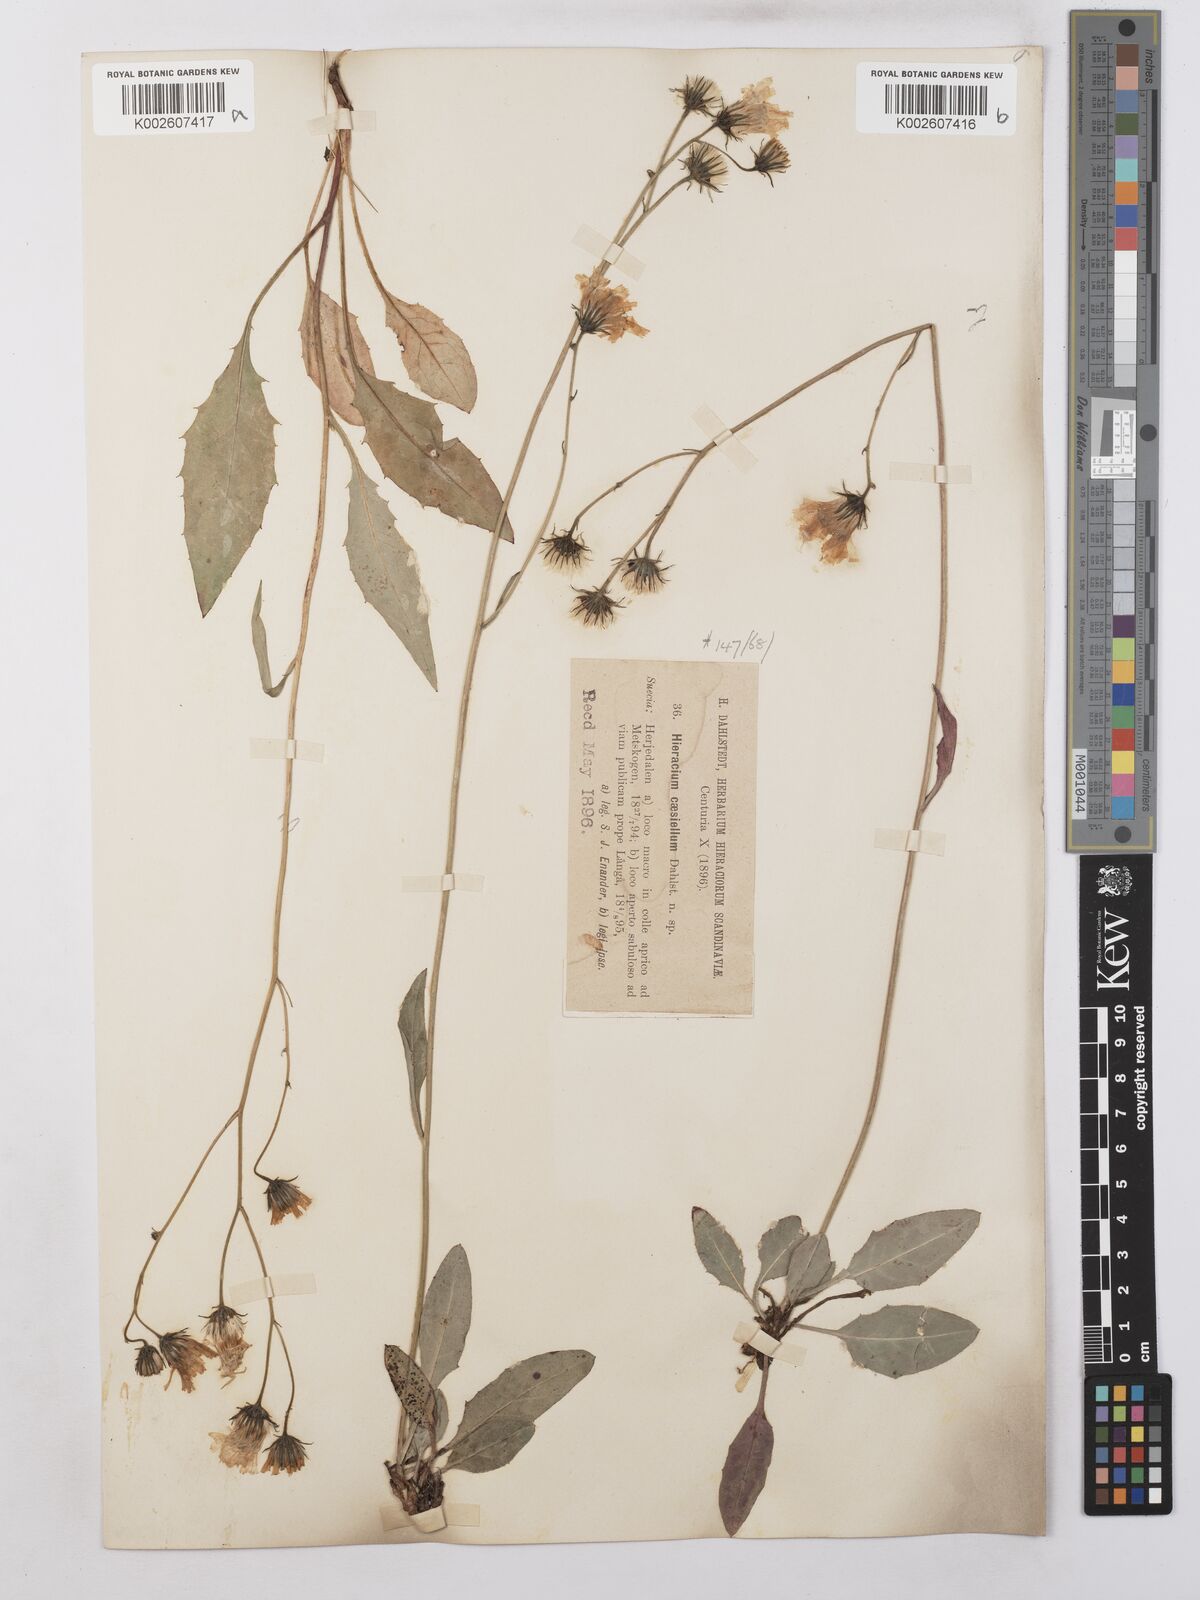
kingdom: Plantae
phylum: Tracheophyta
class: Magnoliopsida
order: Asterales
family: Asteraceae
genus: Hieracium
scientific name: Hieracium caesium
